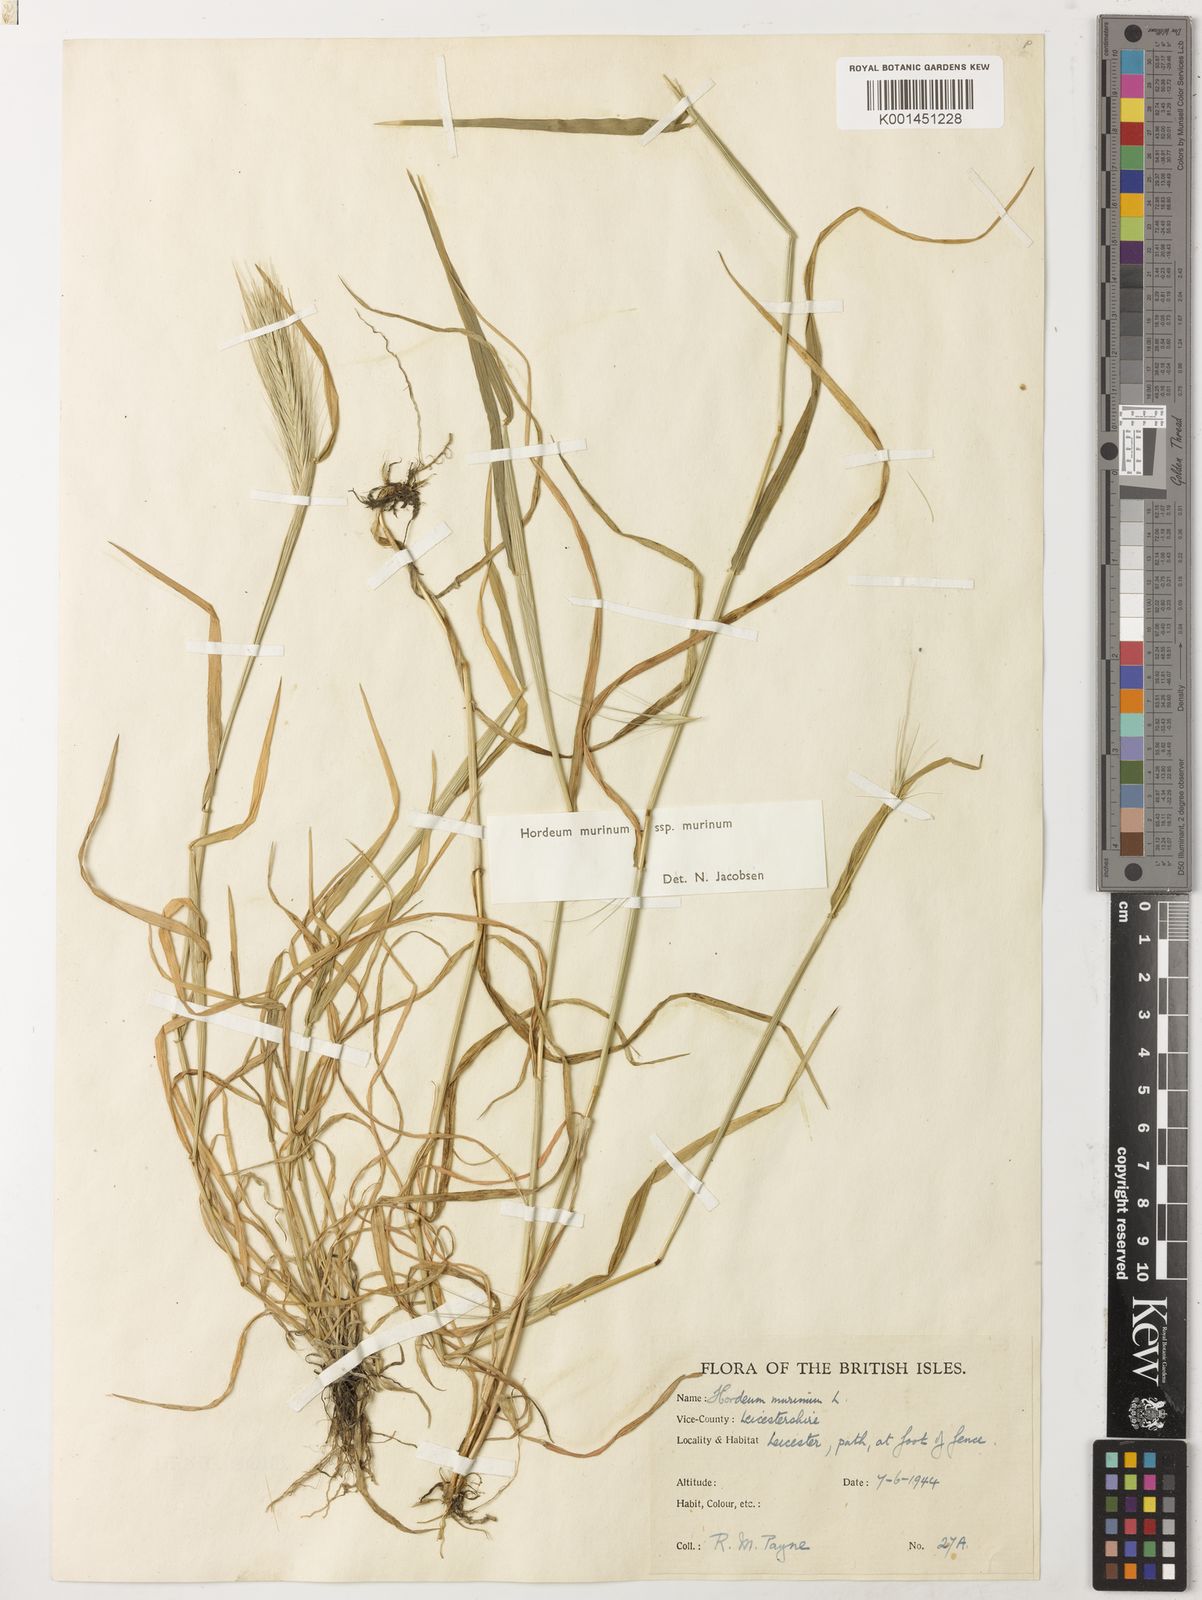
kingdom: Plantae
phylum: Tracheophyta
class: Liliopsida
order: Poales
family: Poaceae
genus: Hordeum
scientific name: Hordeum murinum
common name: Wall barley
